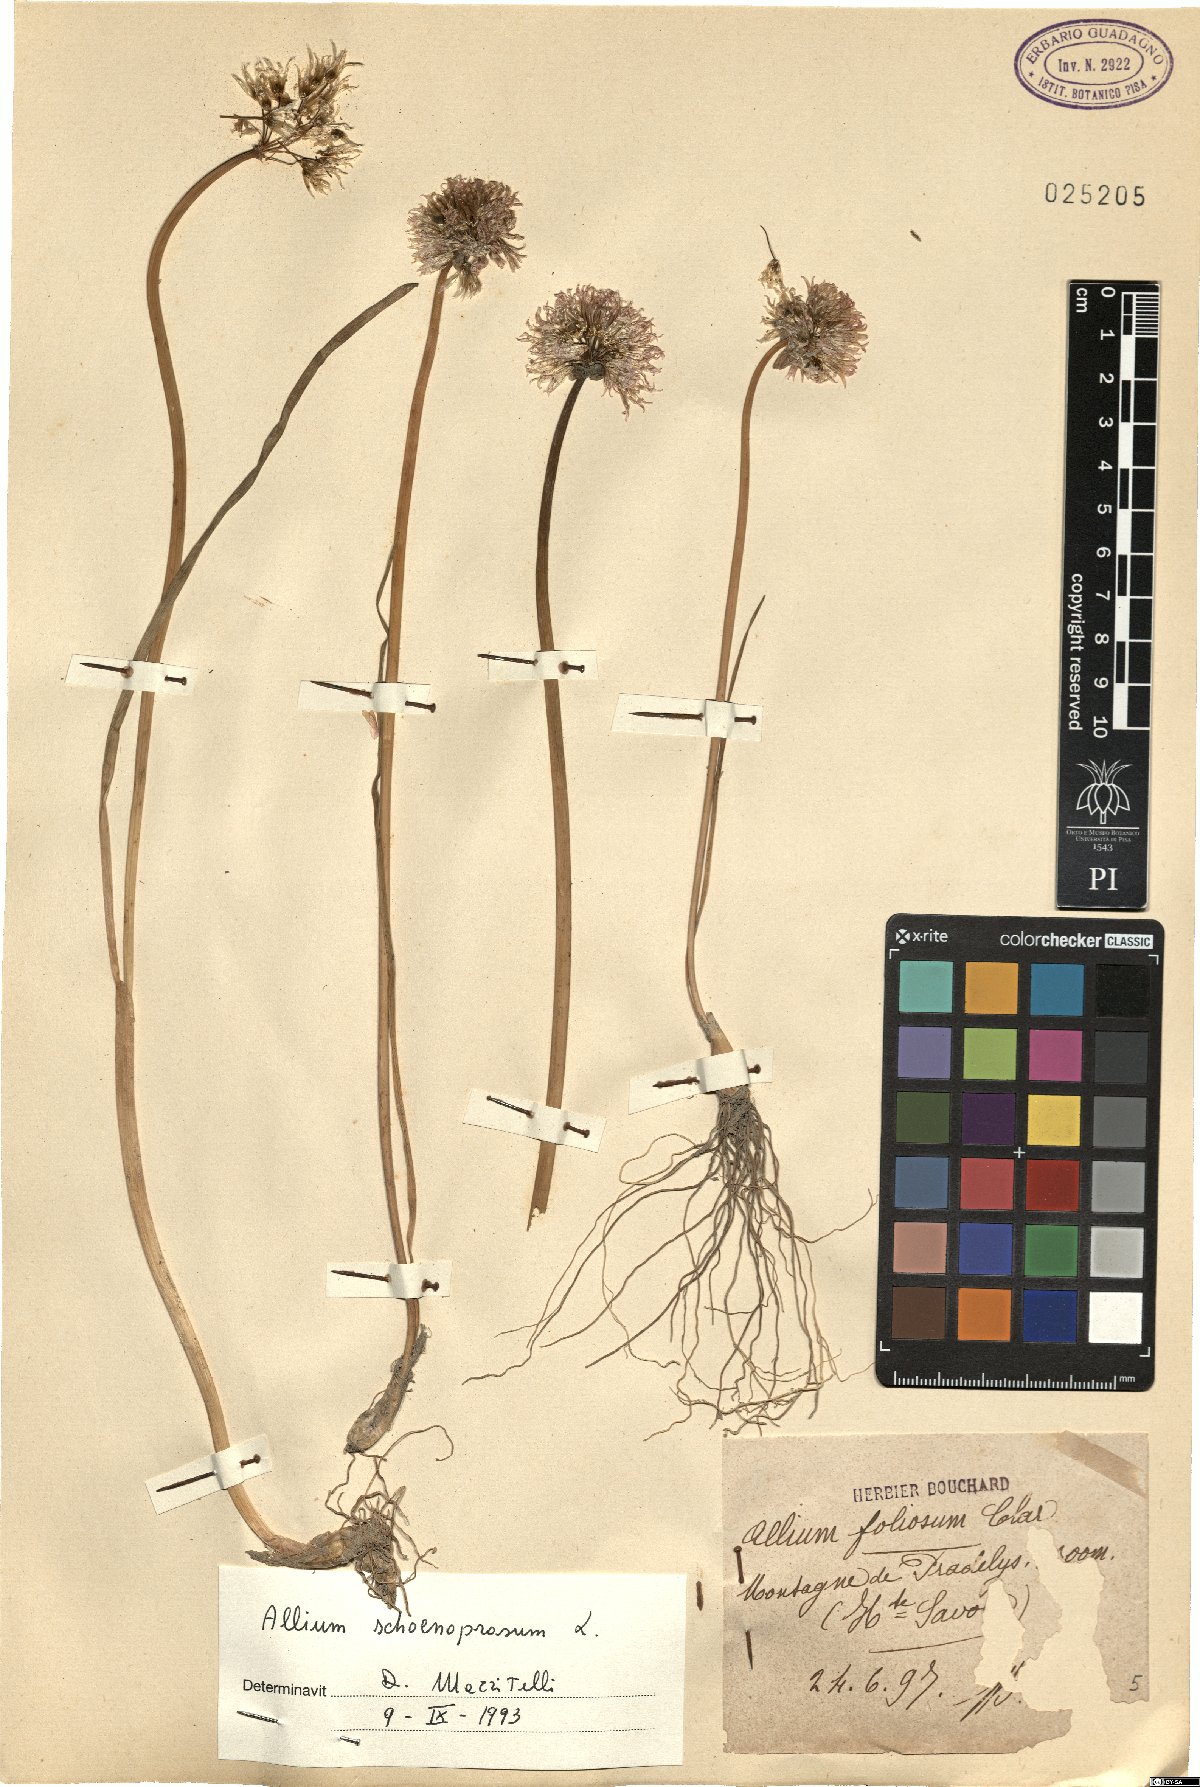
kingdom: Plantae
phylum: Tracheophyta
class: Liliopsida
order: Asparagales
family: Amaryllidaceae
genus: Allium
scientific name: Allium schoenoprasum
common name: Chives
